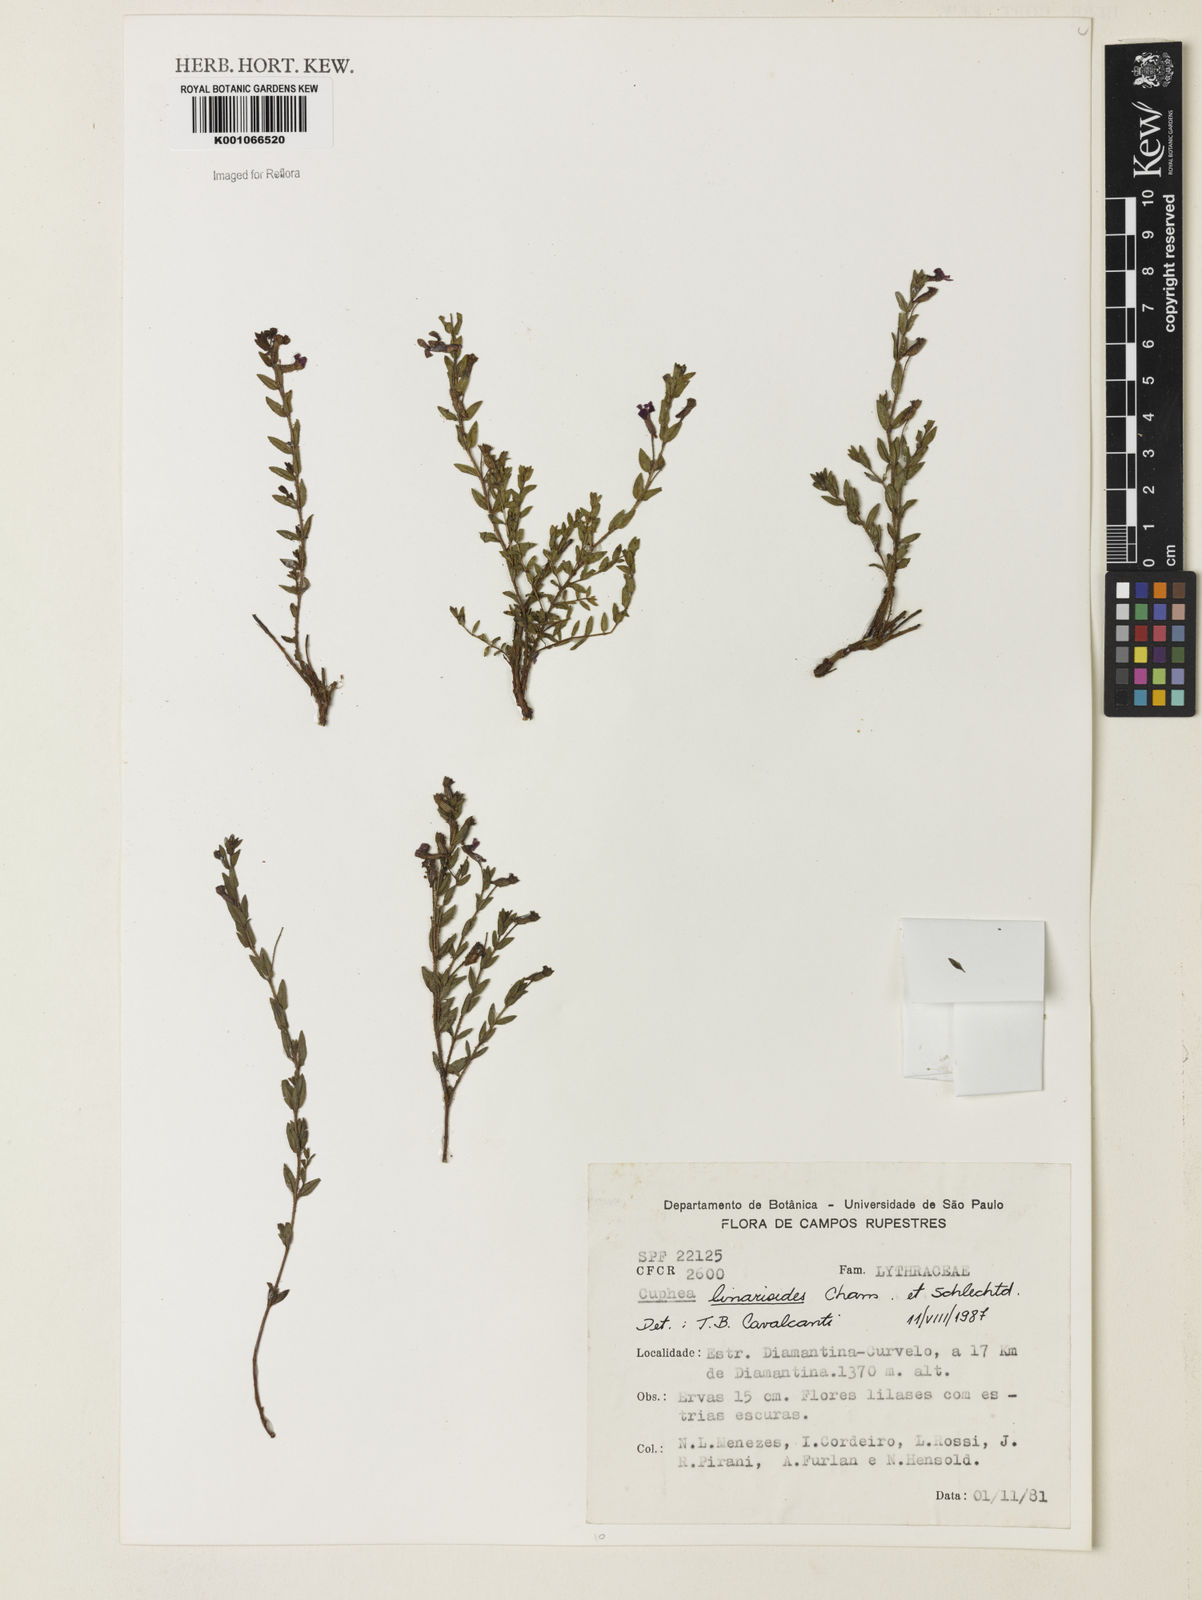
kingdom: Plantae
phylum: Tracheophyta
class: Magnoliopsida
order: Myrtales
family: Lythraceae
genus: Cuphea
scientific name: Cuphea linarioides
